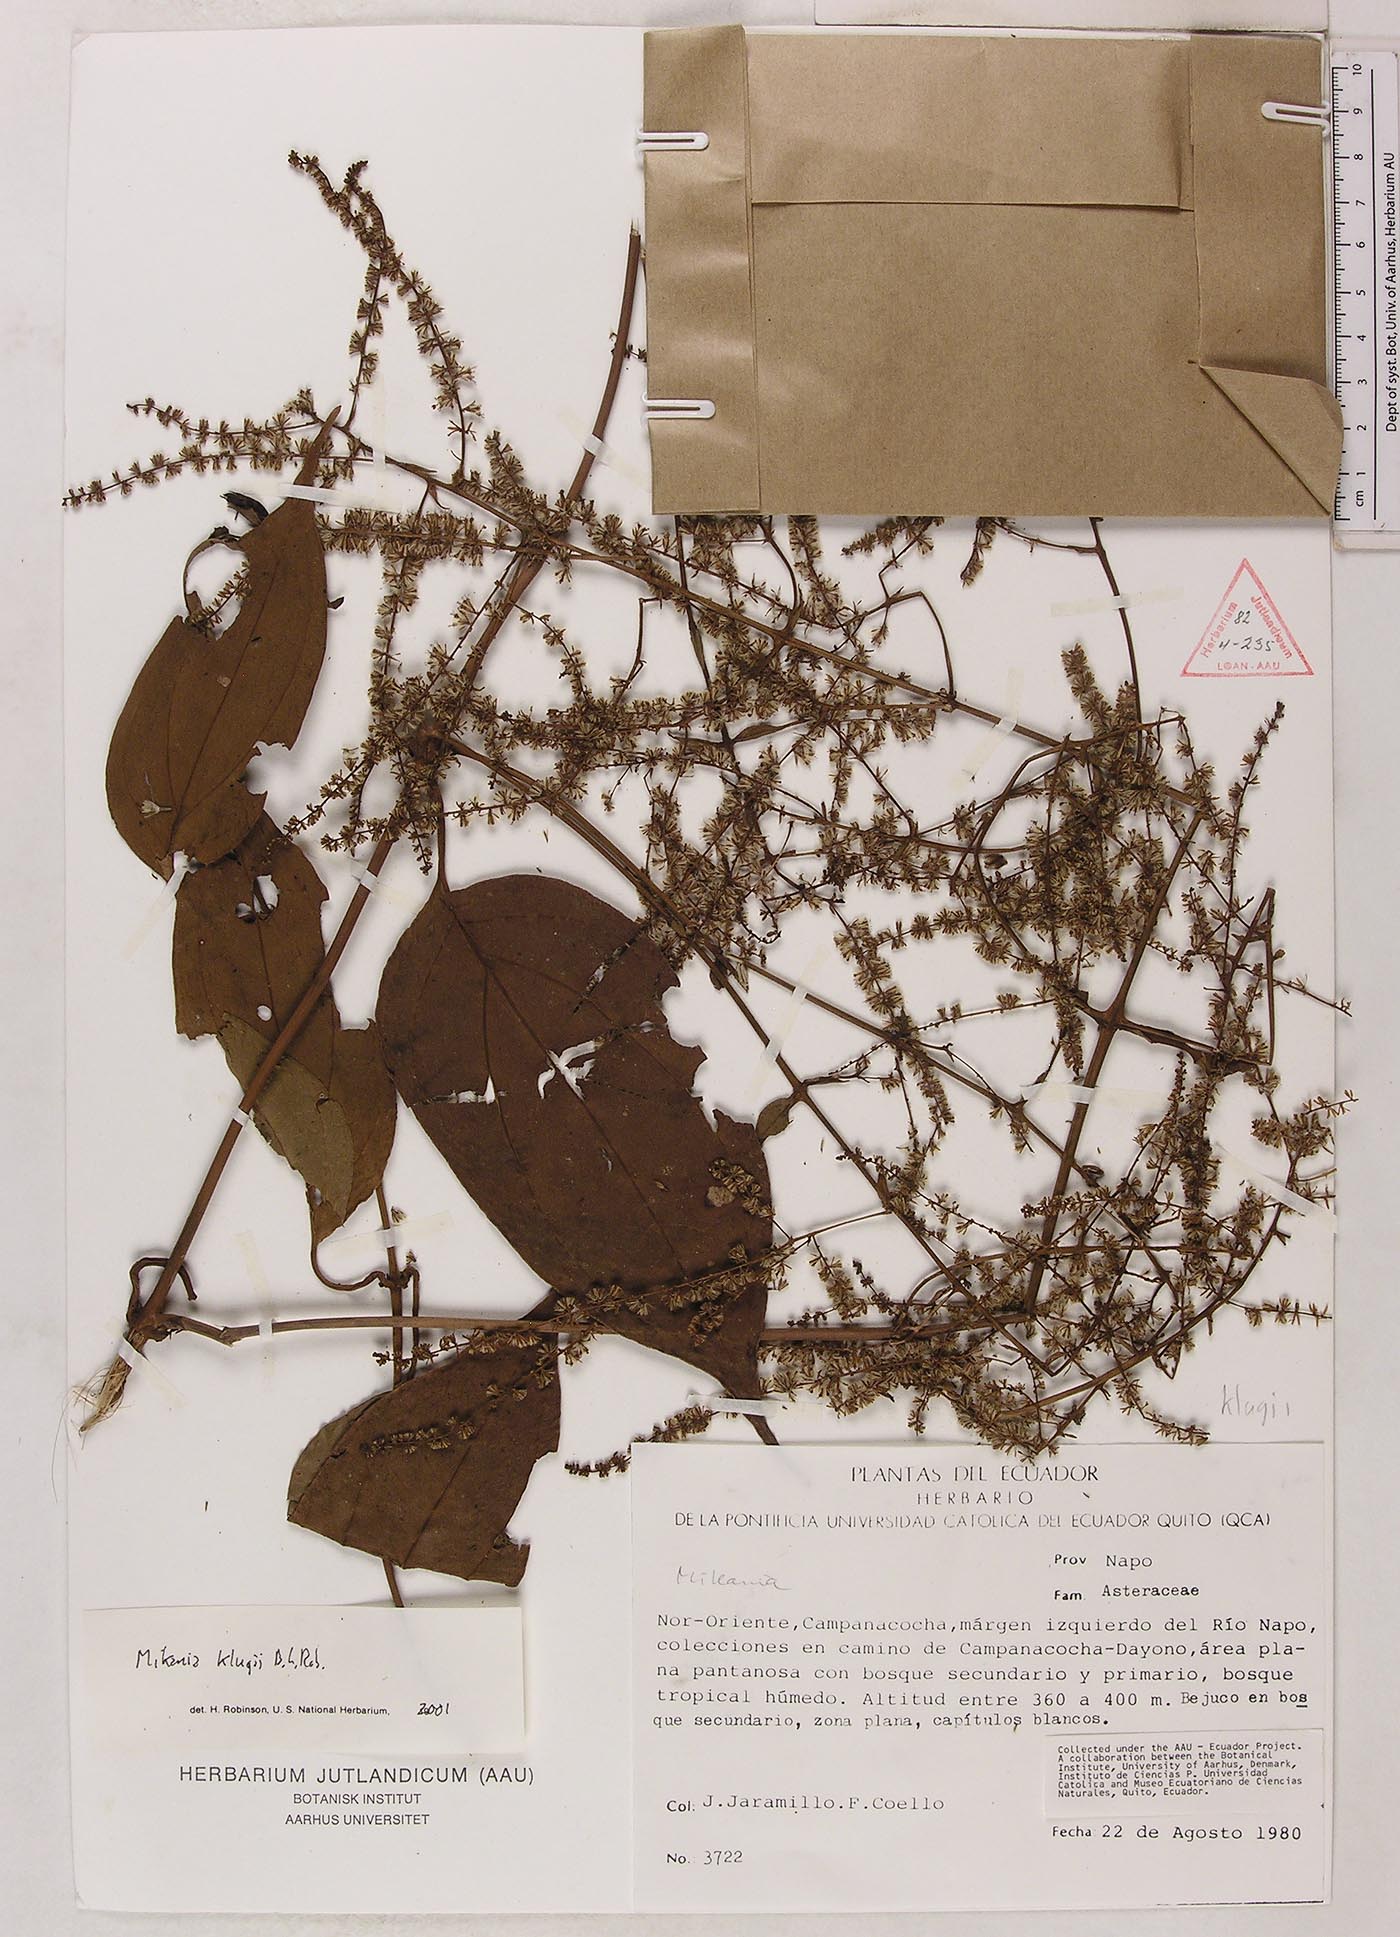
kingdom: Plantae
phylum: Tracheophyta
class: Magnoliopsida
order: Asterales
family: Asteraceae
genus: Mikania
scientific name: Mikania klugii
